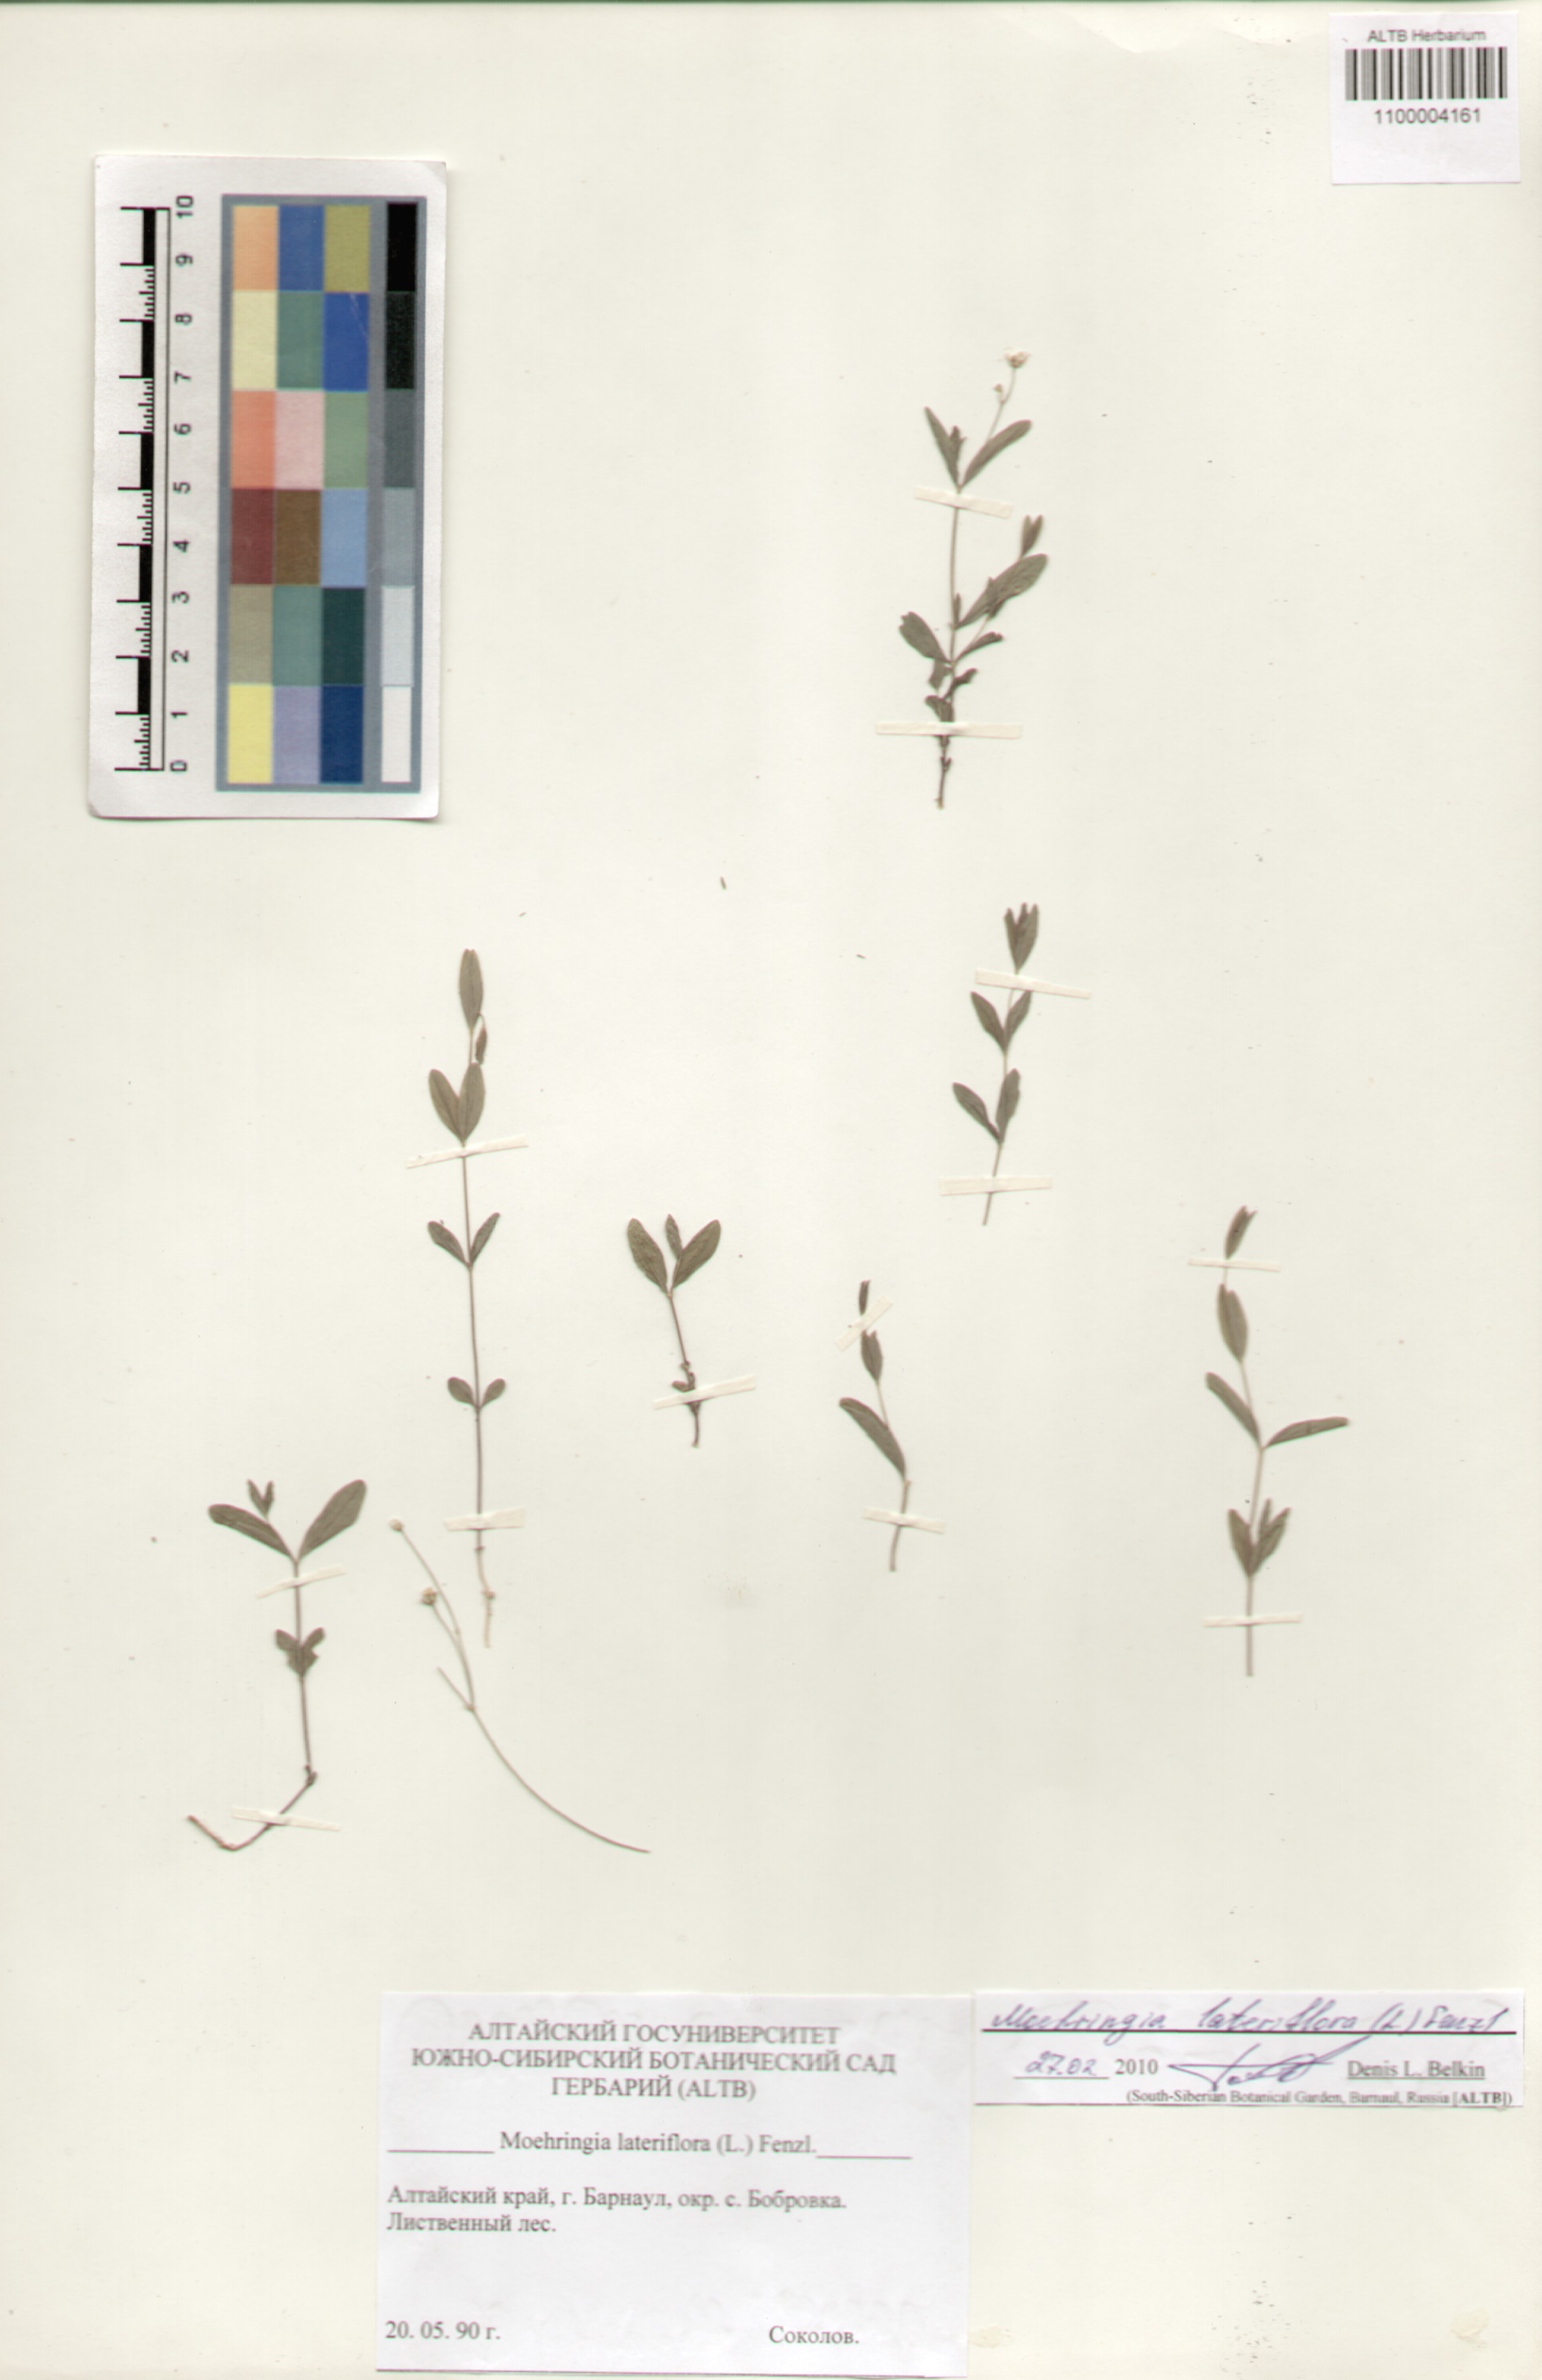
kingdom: Plantae
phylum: Tracheophyta
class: Magnoliopsida
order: Caryophyllales
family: Caryophyllaceae
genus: Moehringia
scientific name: Moehringia lateriflora
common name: Blunt-leaved sandwort
